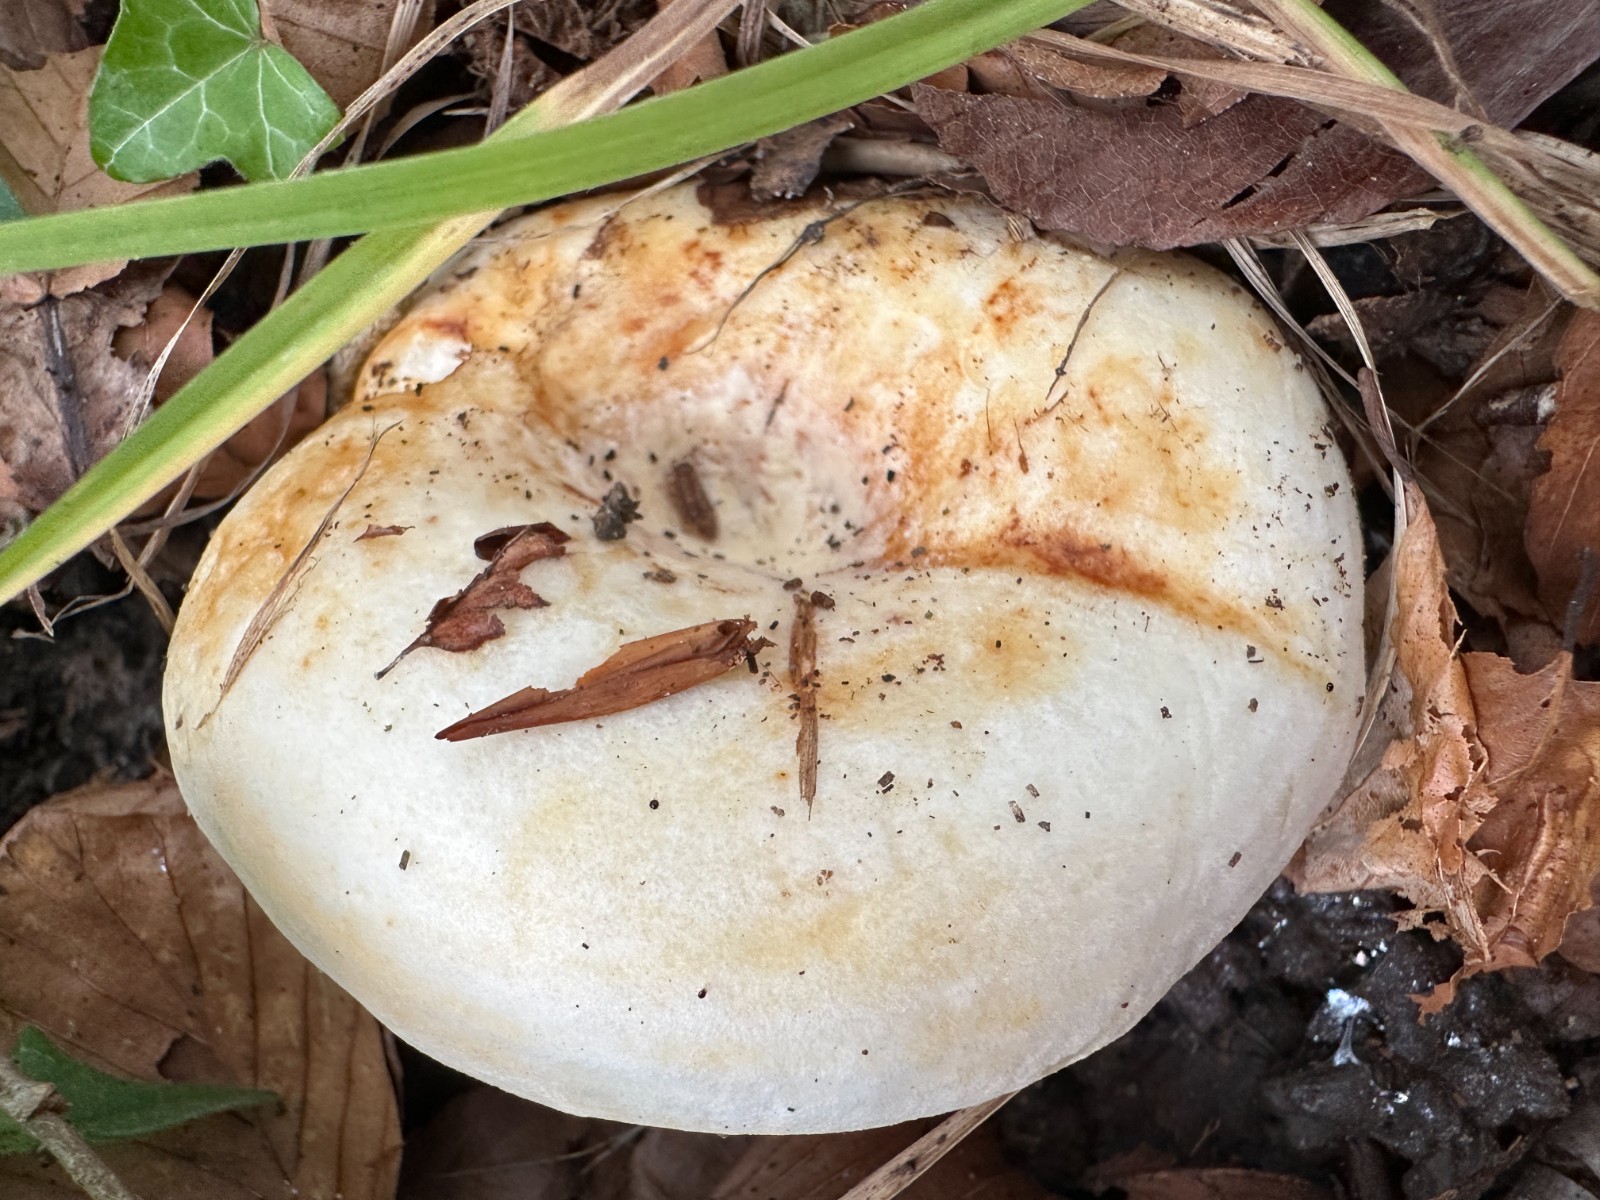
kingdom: Fungi
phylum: Basidiomycota
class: Agaricomycetes
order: Russulales
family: Russulaceae
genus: Lactarius
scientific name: Lactarius pallidus
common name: bleg mælkehat
